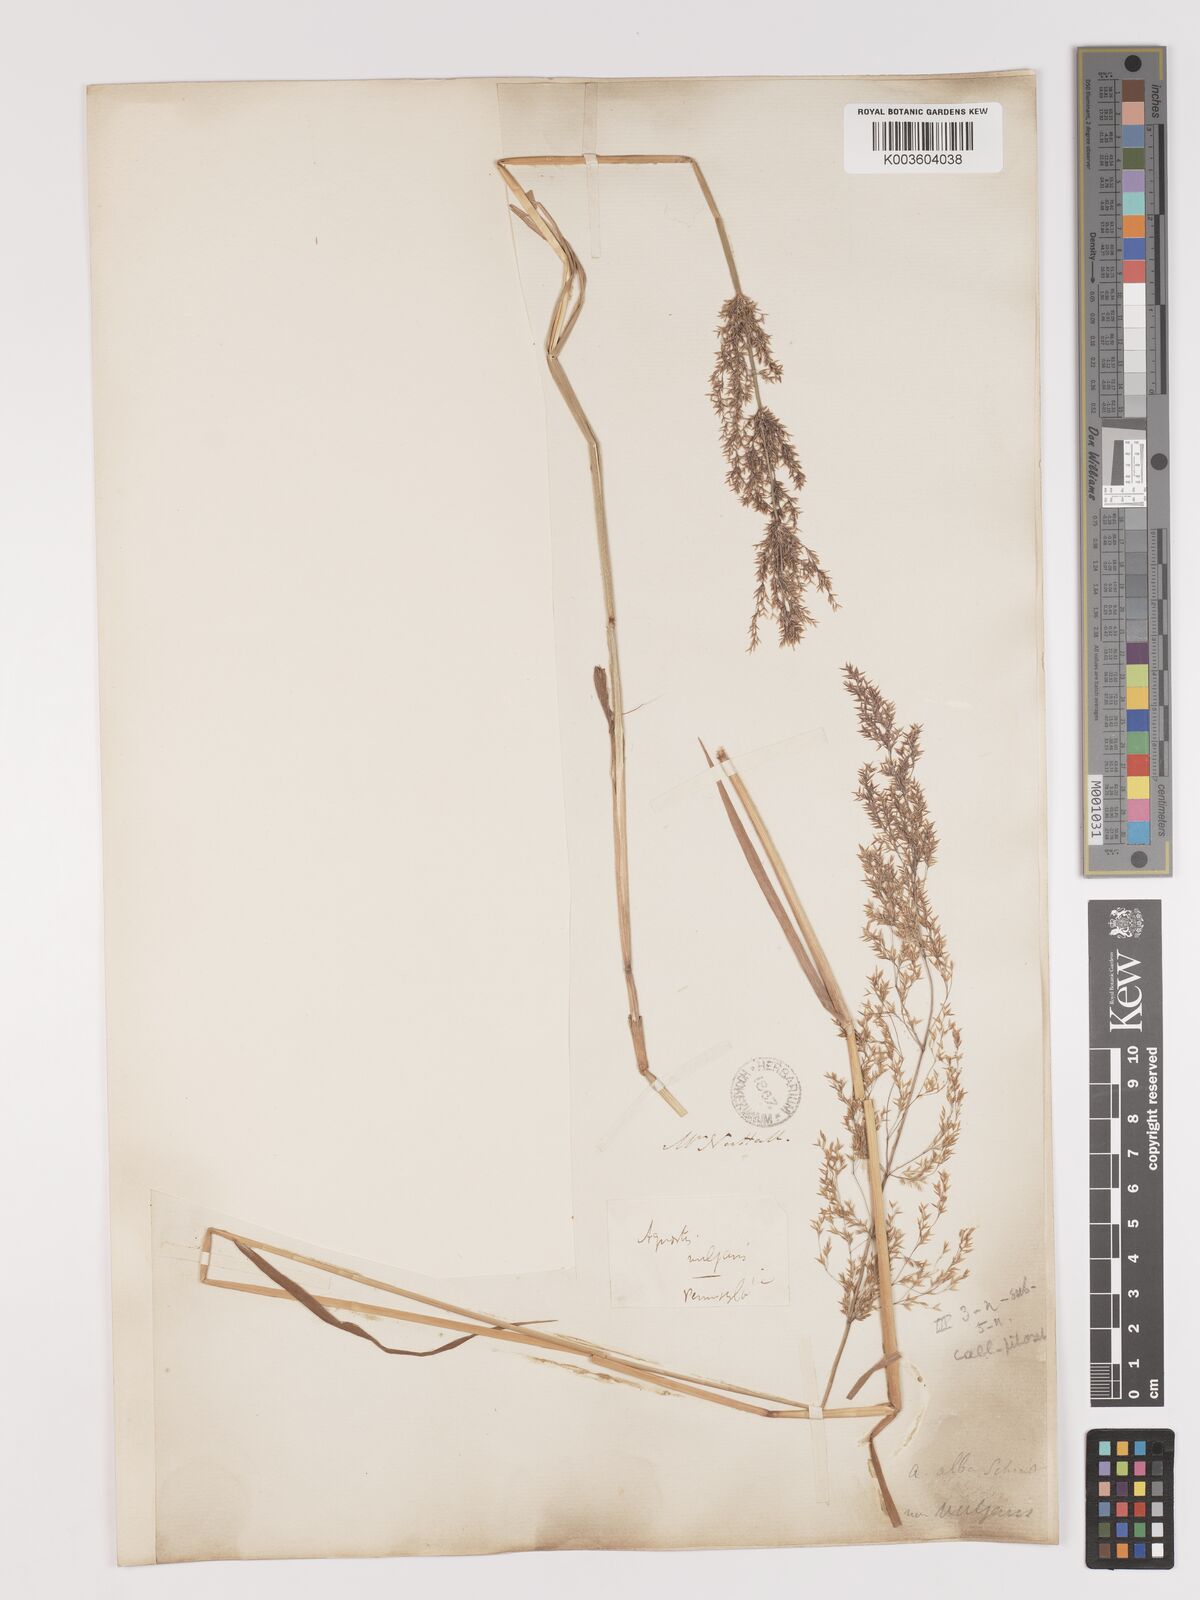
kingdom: Plantae
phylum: Tracheophyta
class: Liliopsida
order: Poales
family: Poaceae
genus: Agrostis
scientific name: Agrostis gigantea
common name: Black bent
